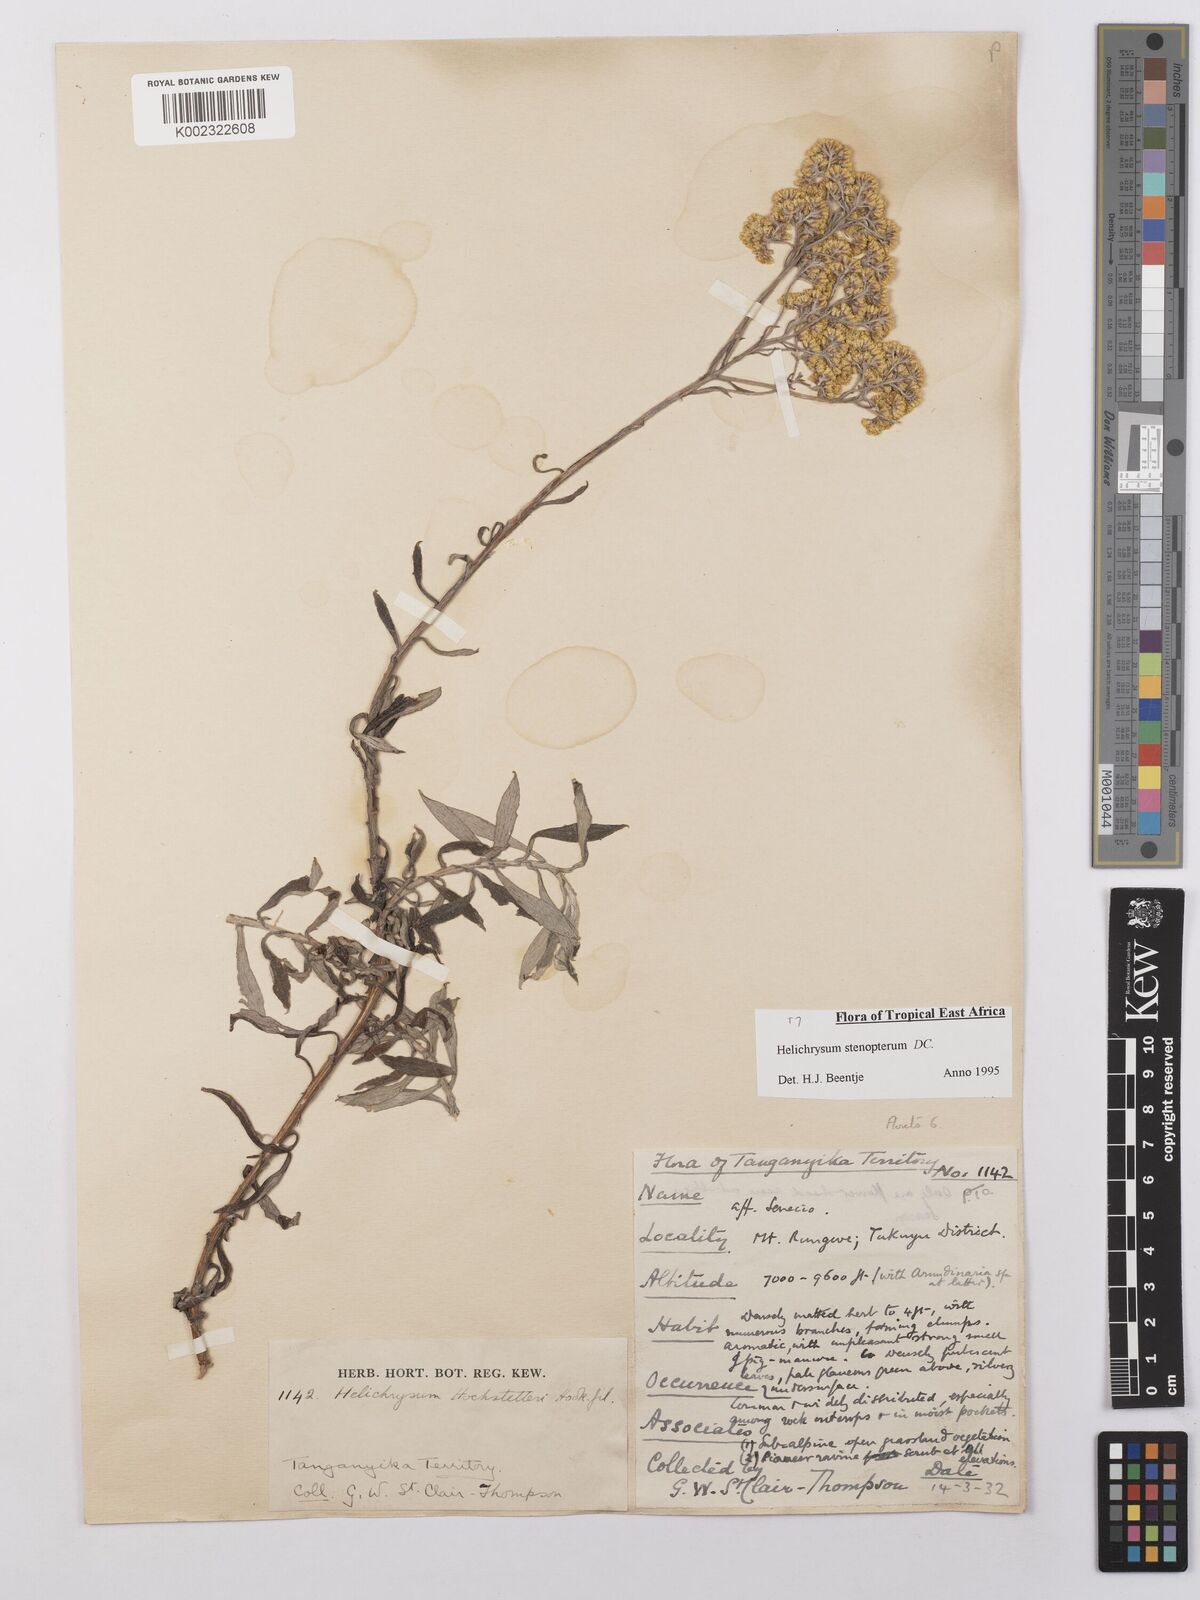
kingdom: Plantae
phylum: Tracheophyta
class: Magnoliopsida
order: Asterales
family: Asteraceae
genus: Helichrysum
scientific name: Helichrysum stenopterum
